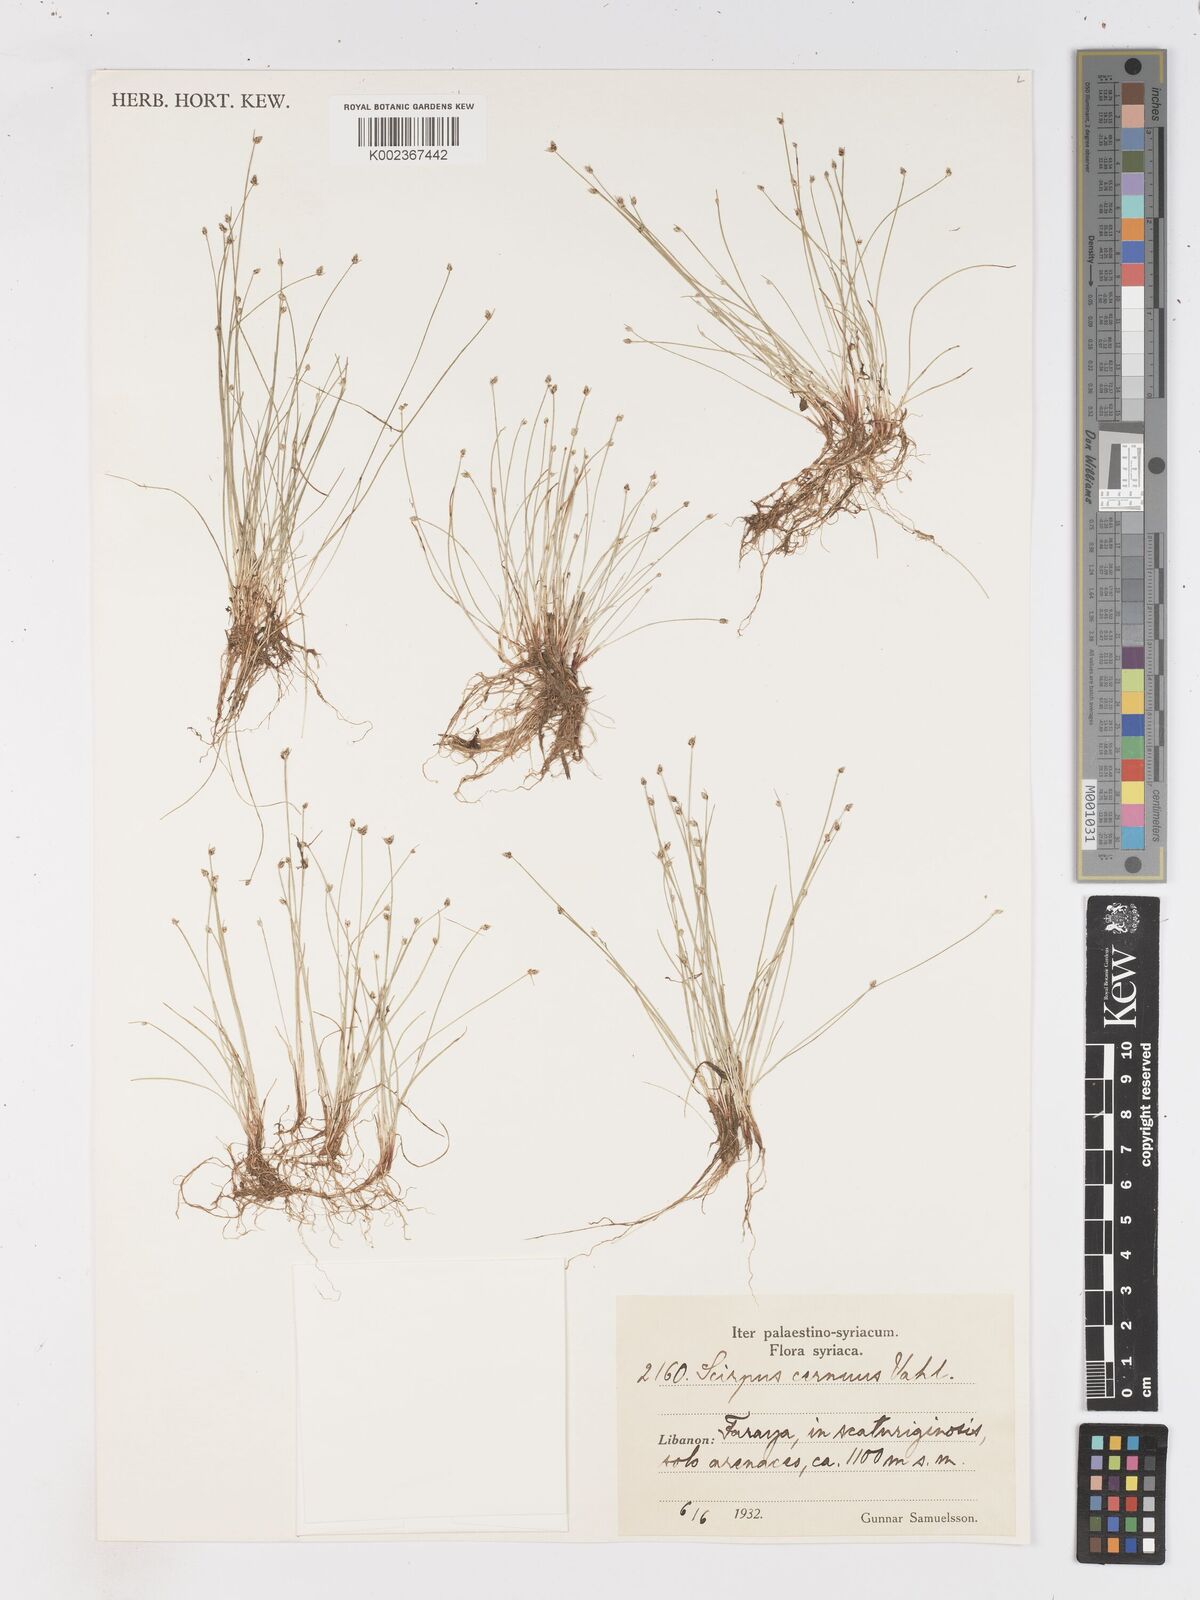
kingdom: Plantae
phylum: Tracheophyta
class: Liliopsida
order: Poales
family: Cyperaceae
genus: Isolepis
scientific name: Isolepis cernua
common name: Slender club-rush
